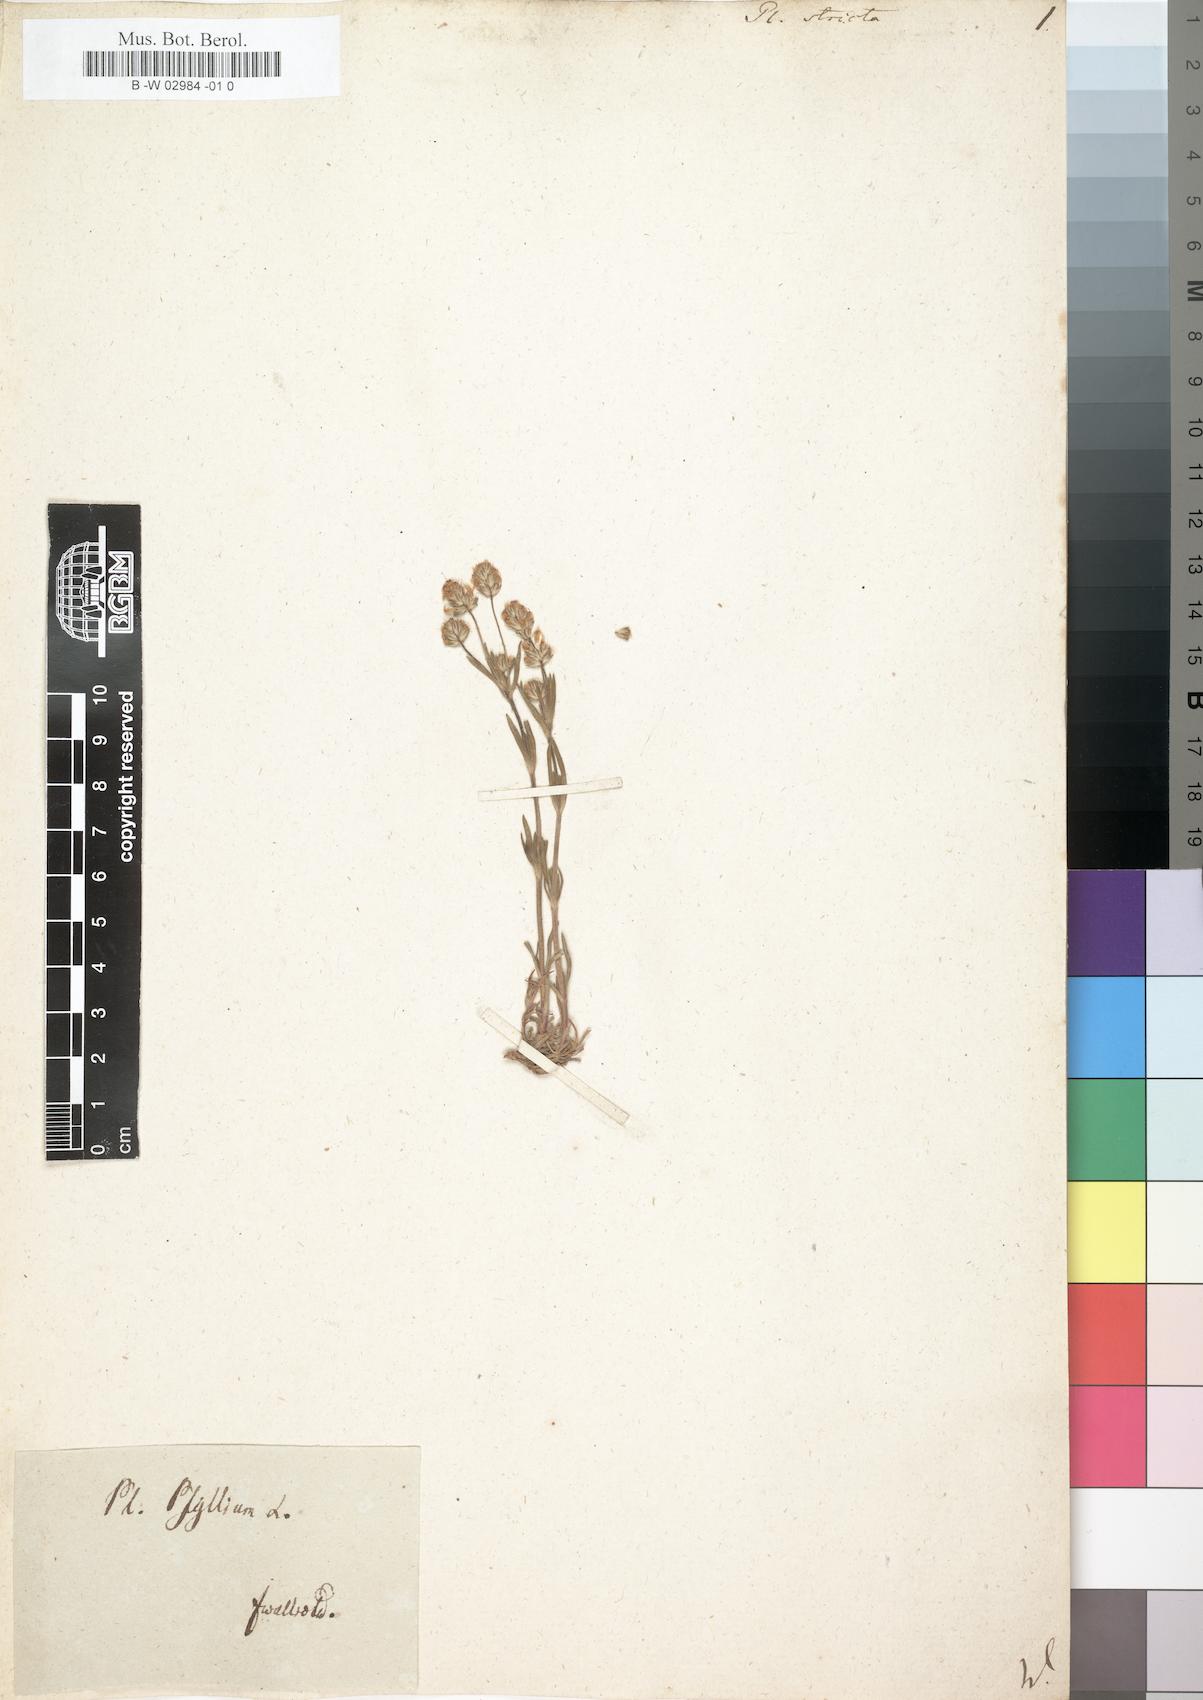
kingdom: Plantae
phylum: Tracheophyta
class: Magnoliopsida
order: Lamiales
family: Plantaginaceae
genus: Plantago
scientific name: Plantago
